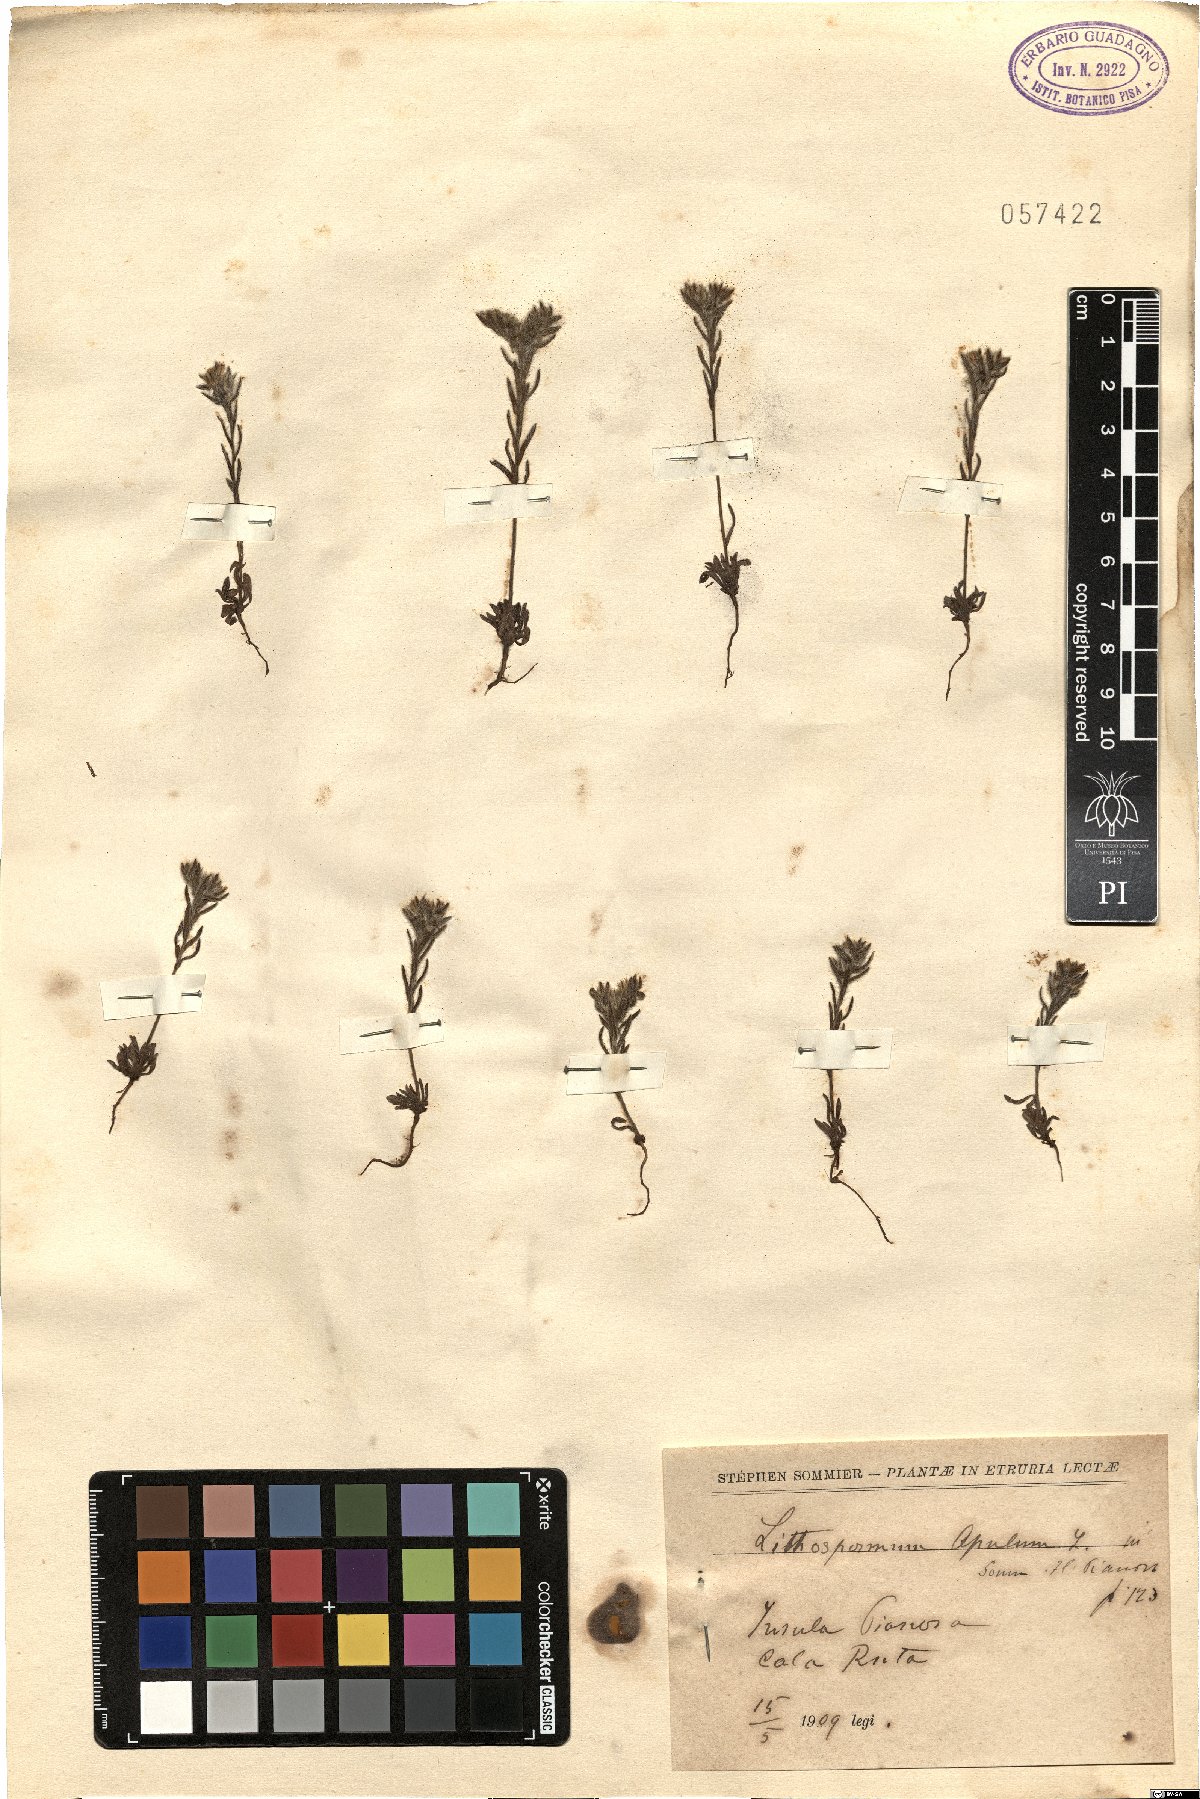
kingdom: Plantae
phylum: Tracheophyta
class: Magnoliopsida
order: Boraginales
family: Boraginaceae
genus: Neatostema
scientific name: Neatostema apulum
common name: Hairy sheepweed
